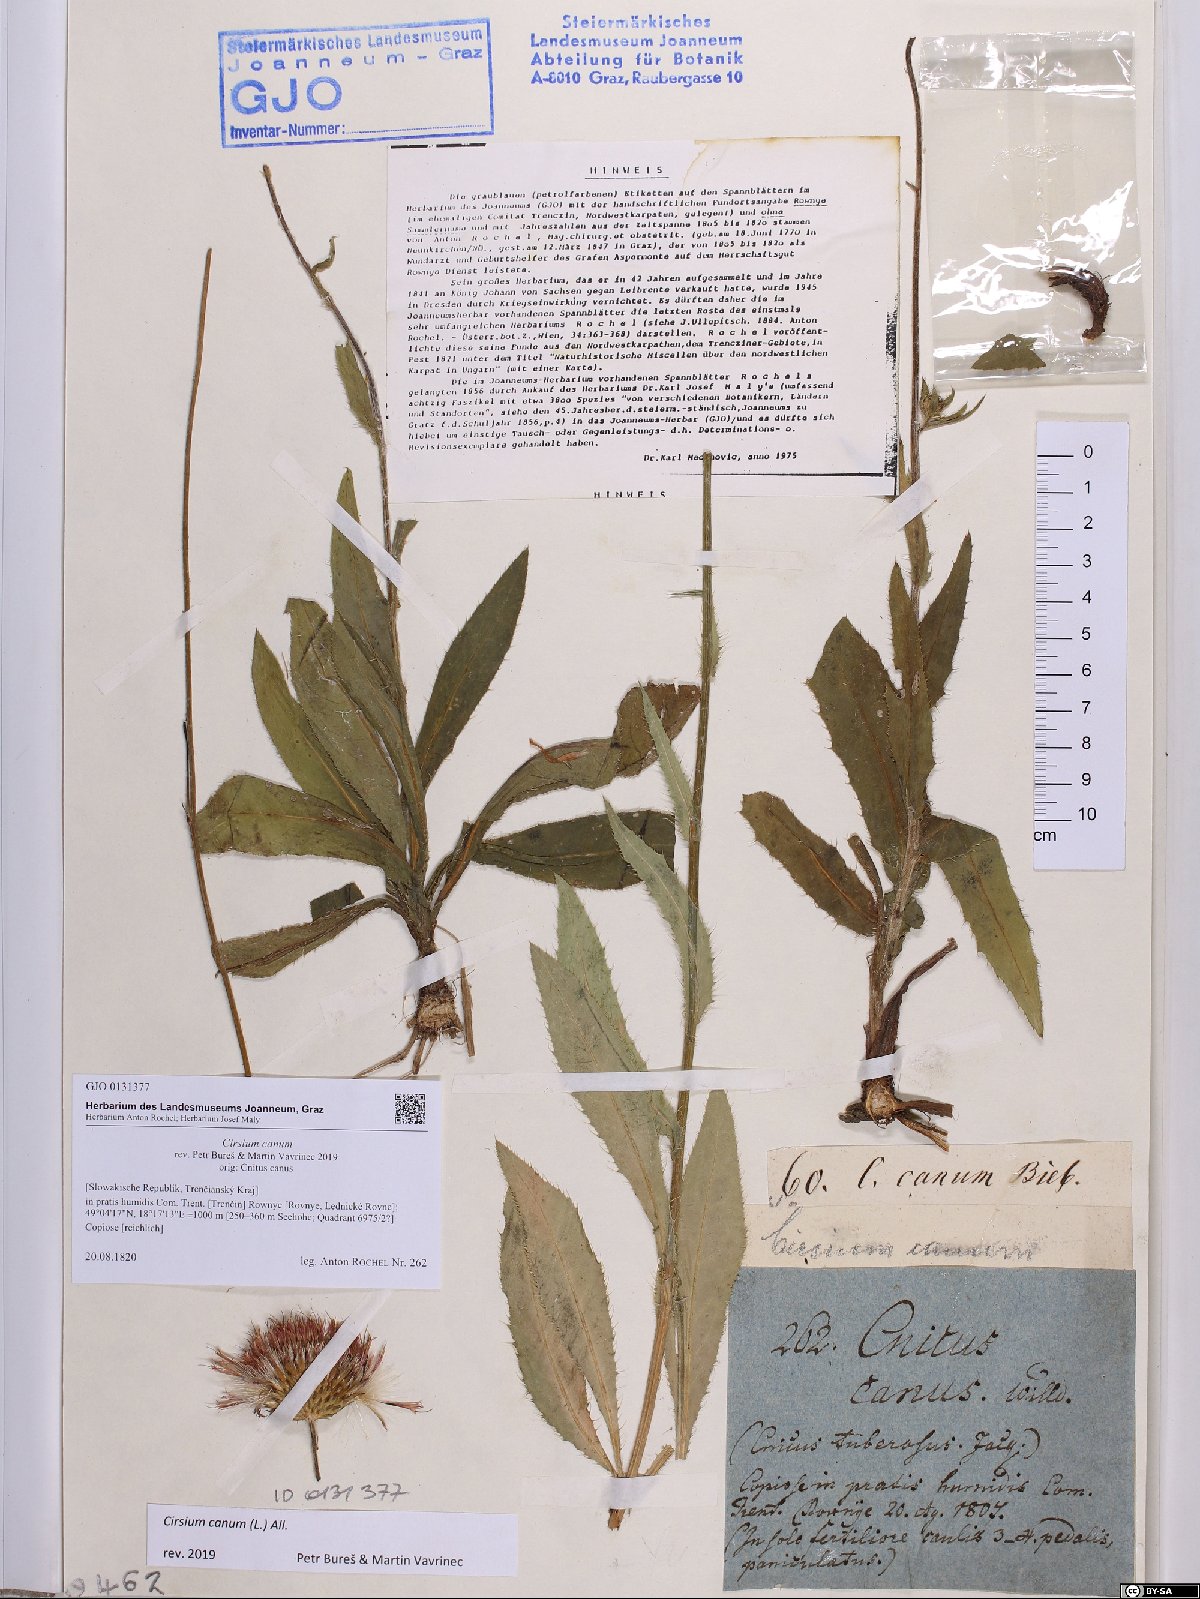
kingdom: Plantae
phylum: Tracheophyta
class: Magnoliopsida
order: Asterales
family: Asteraceae
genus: Cirsium
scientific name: Cirsium canum
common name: Queen anne's thistle
